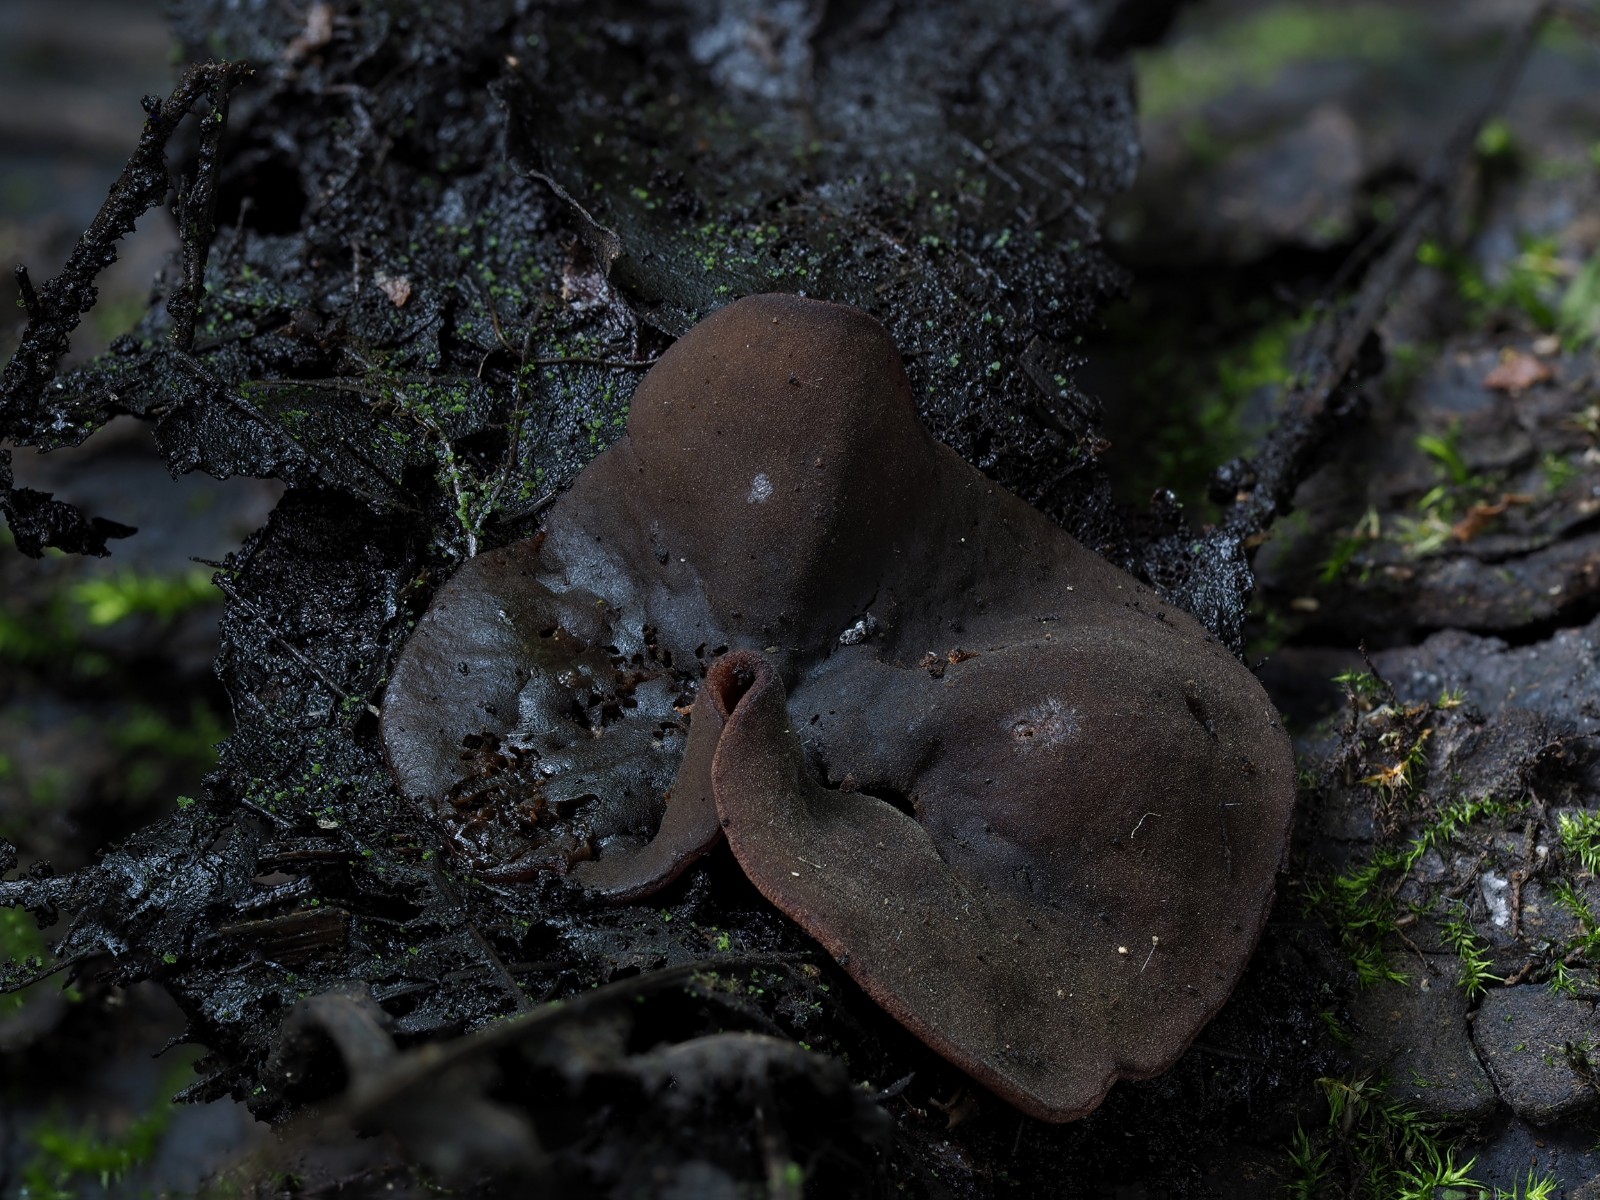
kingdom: Fungi
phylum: Ascomycota
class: Pezizomycetes
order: Pezizales
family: Pezizaceae
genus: Legaliana
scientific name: Legaliana limnaea
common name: mose-bægersvamp
